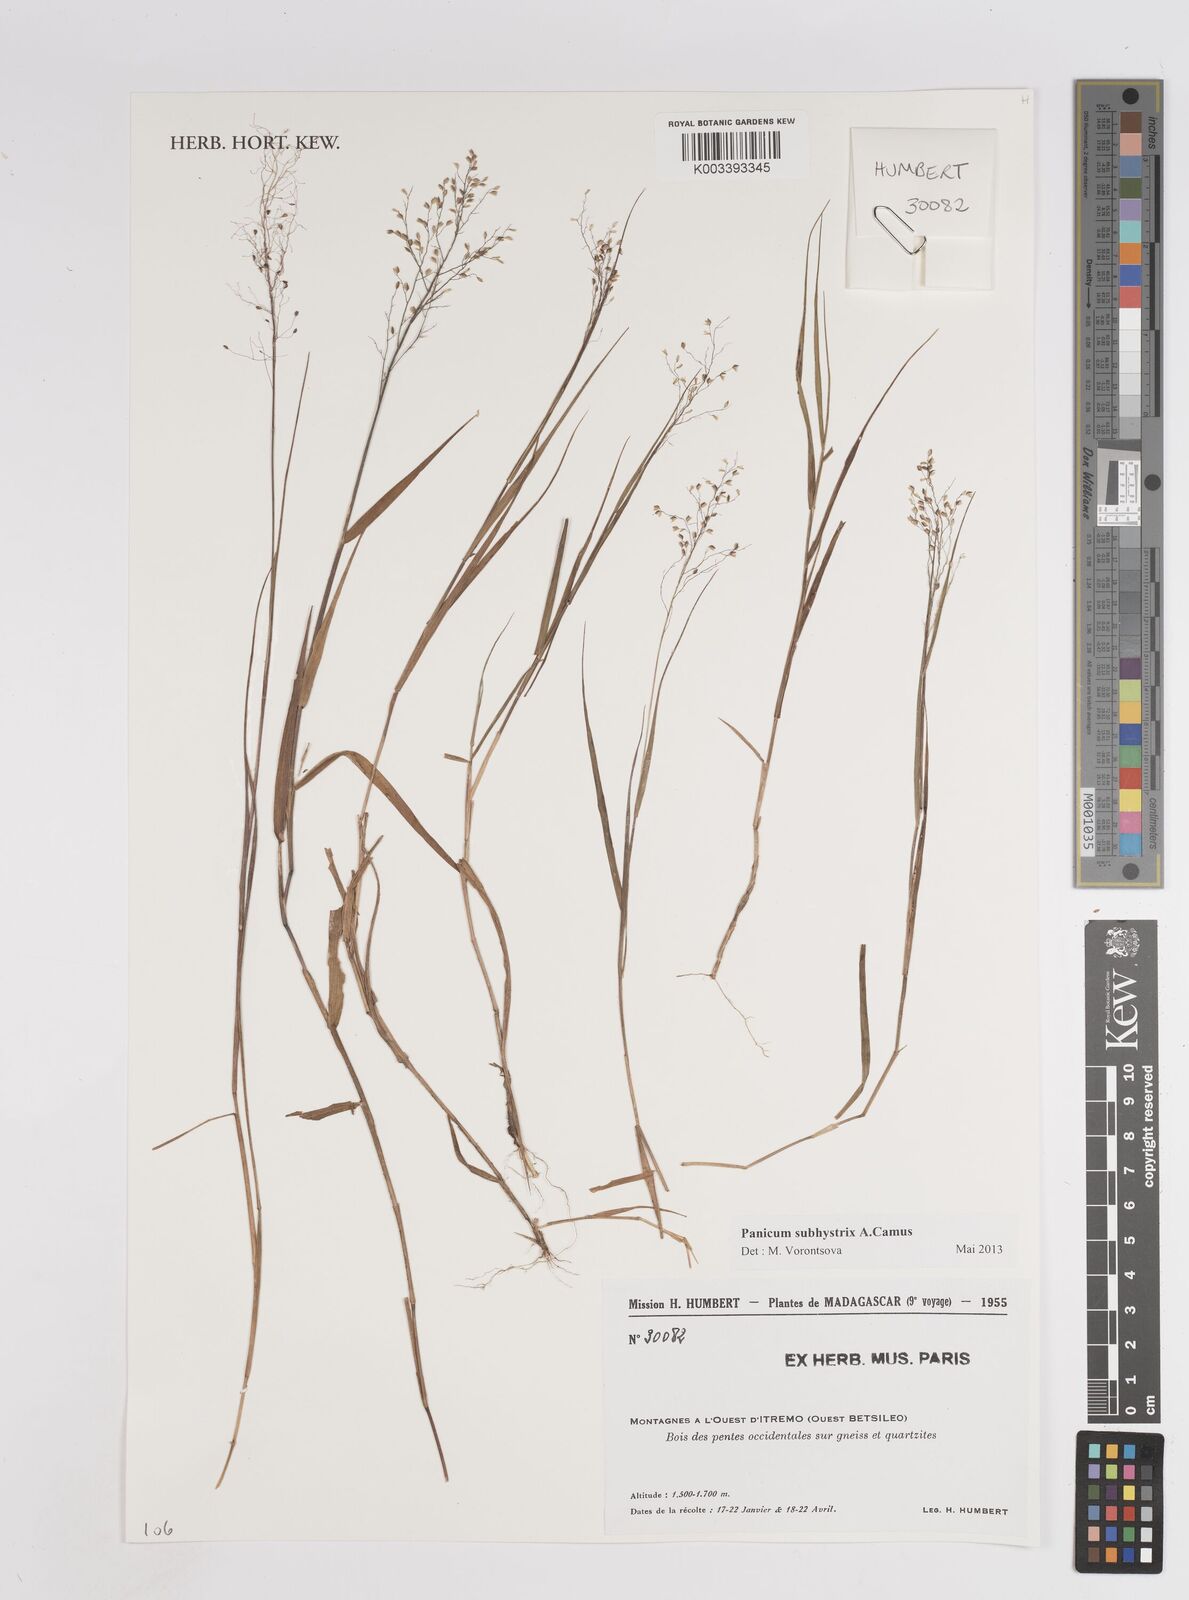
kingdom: Plantae
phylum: Tracheophyta
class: Liliopsida
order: Poales
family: Poaceae
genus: Panicum
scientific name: Panicum subhystrix
